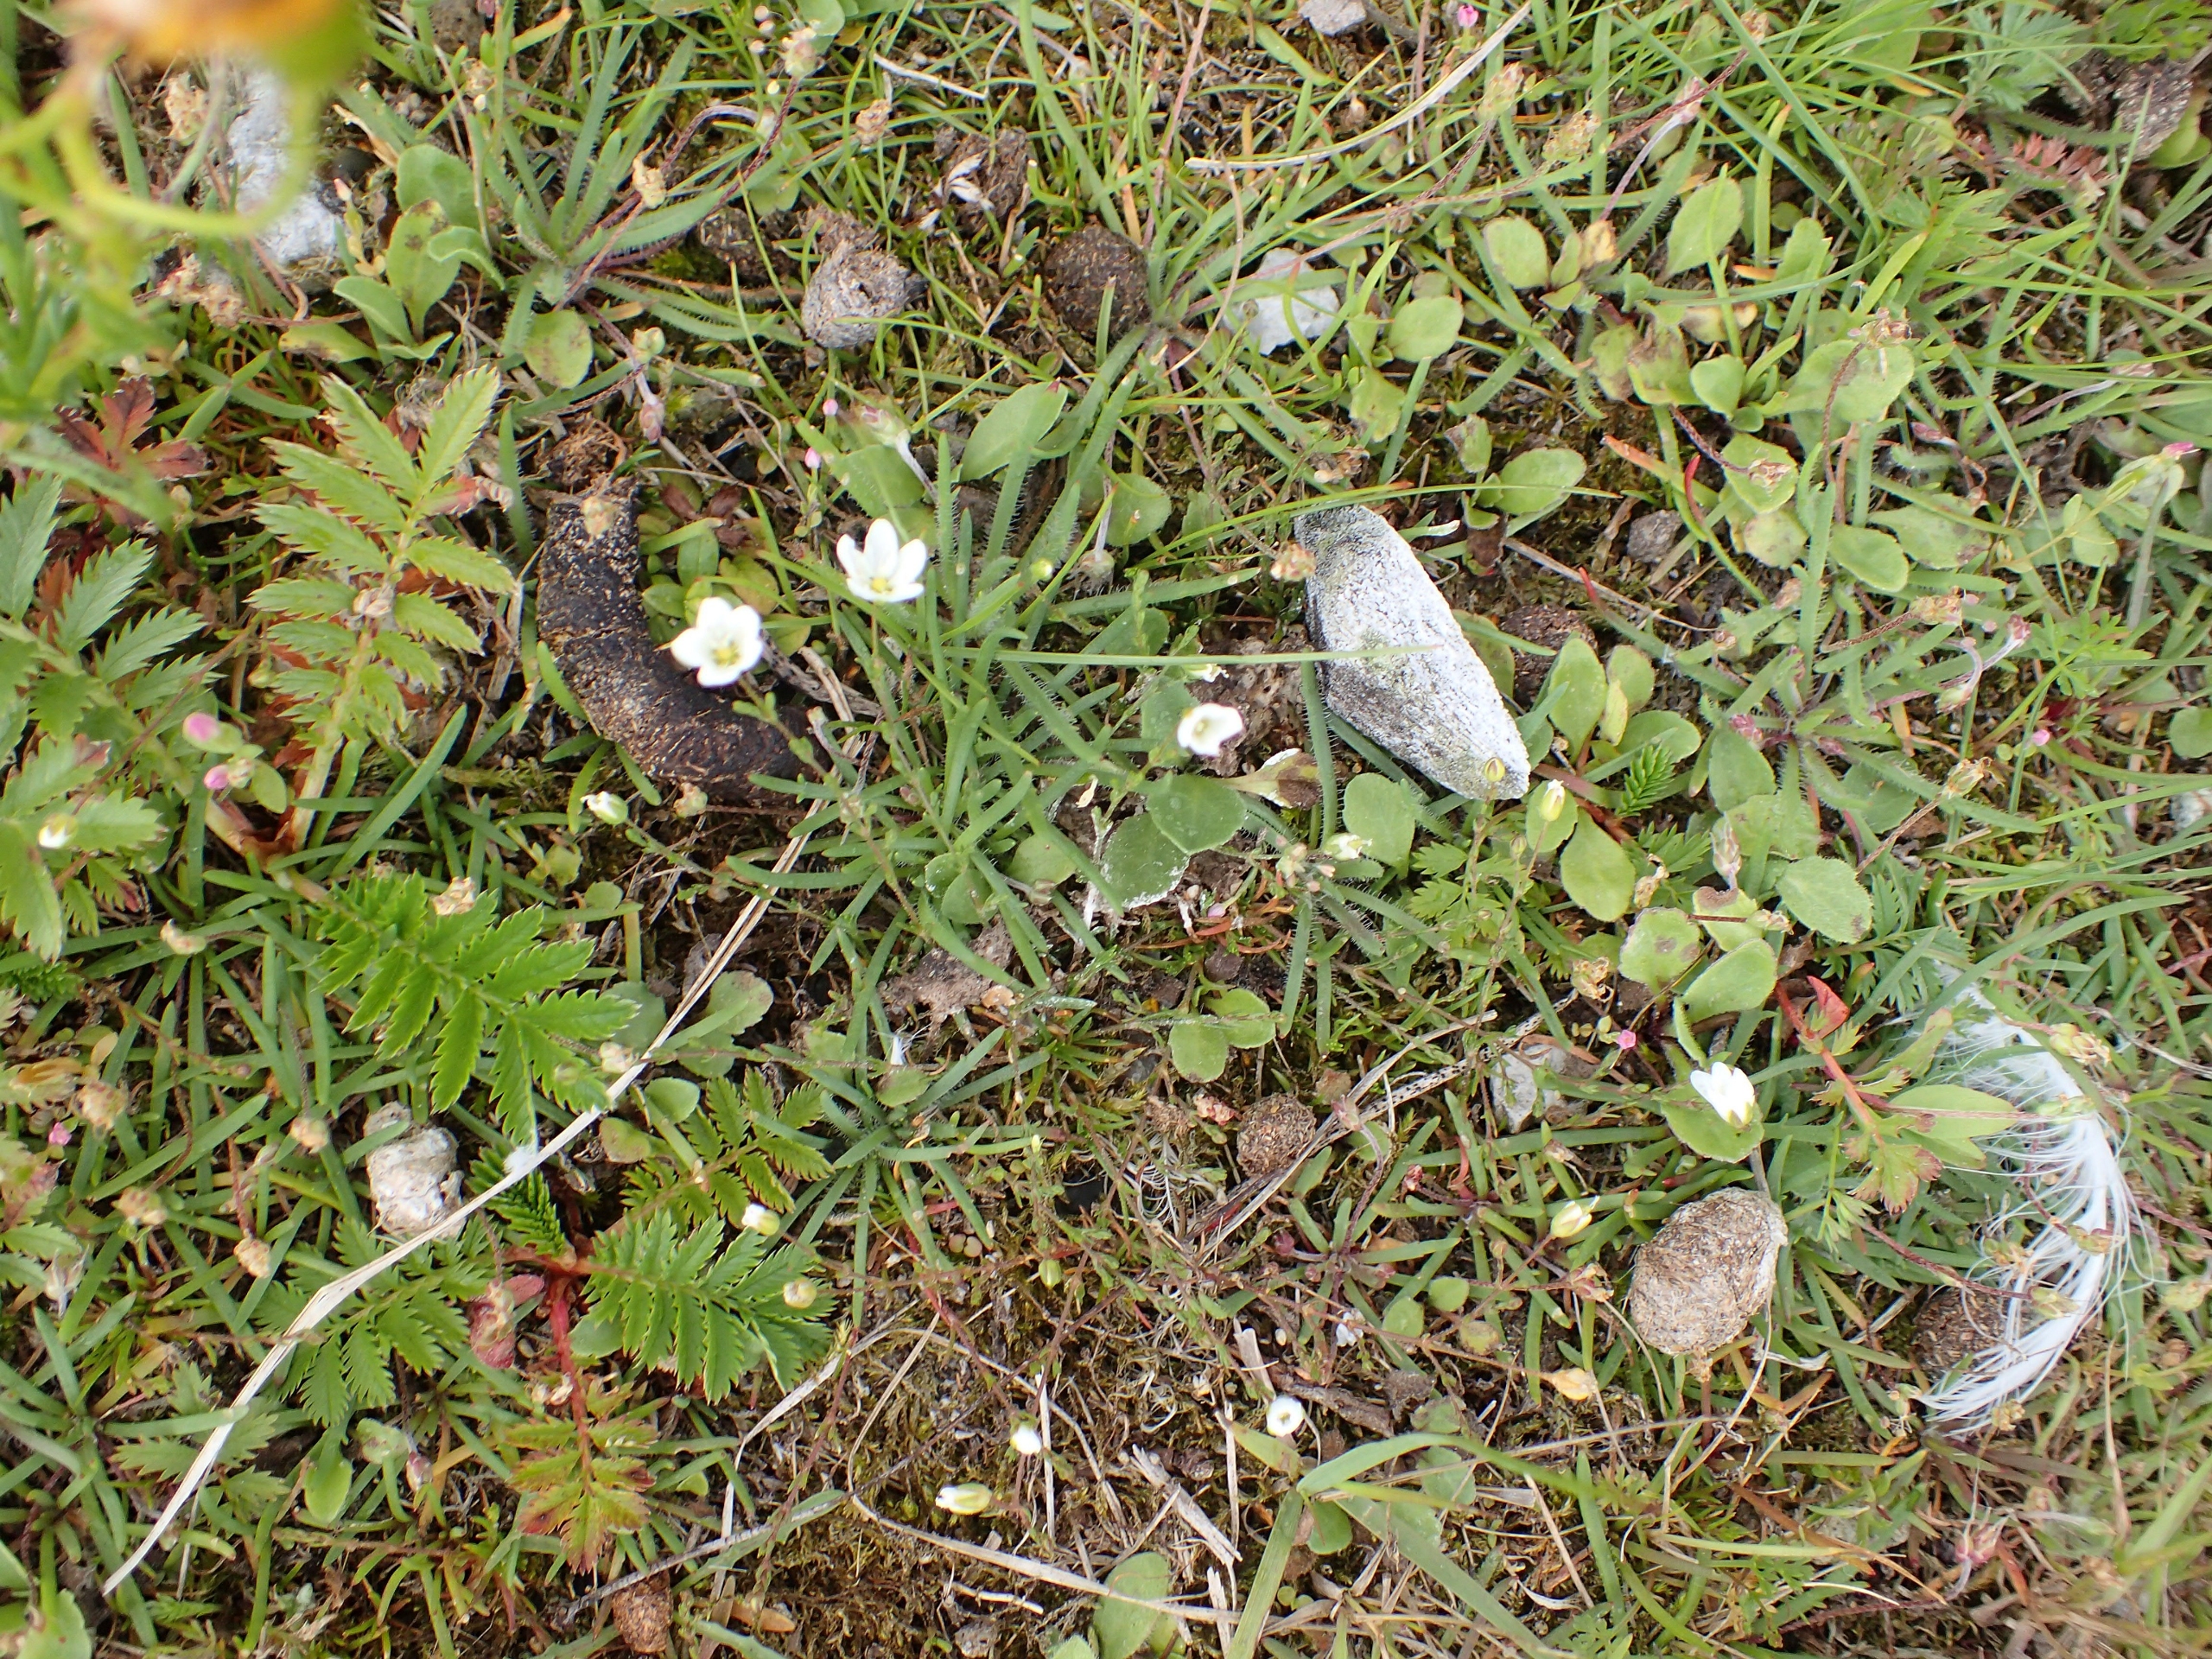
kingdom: Plantae
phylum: Tracheophyta
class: Magnoliopsida
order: Caryophyllales
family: Caryophyllaceae
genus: Sagina
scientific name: Sagina nodosa
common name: Knude-firling
